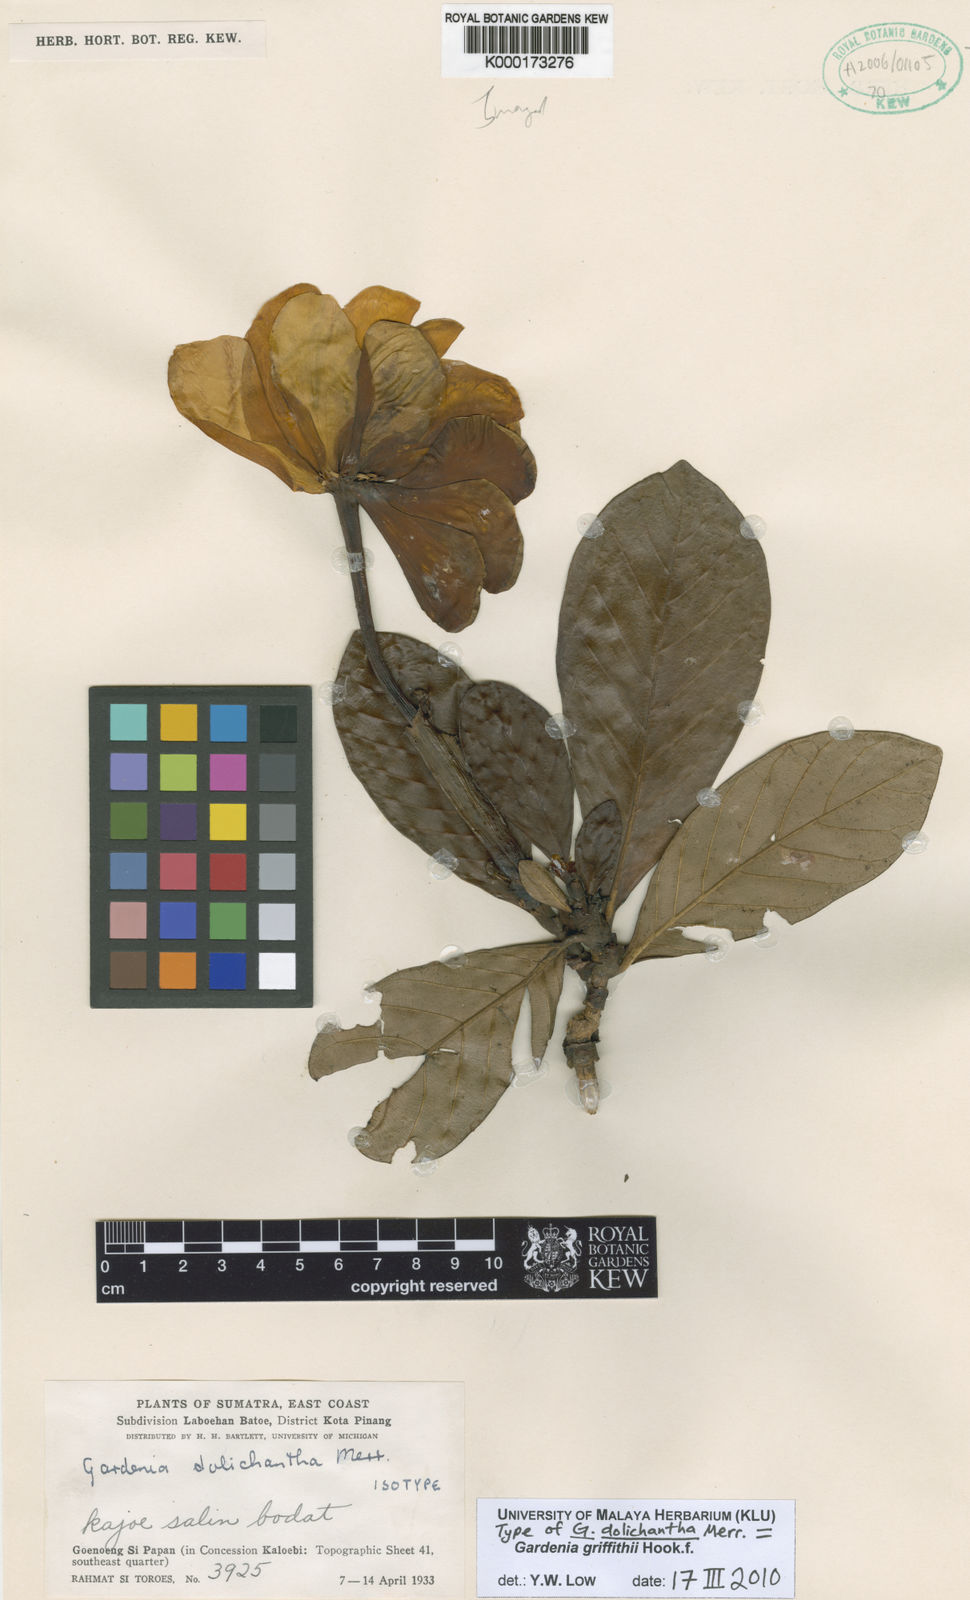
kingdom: Plantae
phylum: Tracheophyta
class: Magnoliopsida
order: Gentianales
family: Rubiaceae
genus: Gardenia
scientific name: Gardenia griffithii
